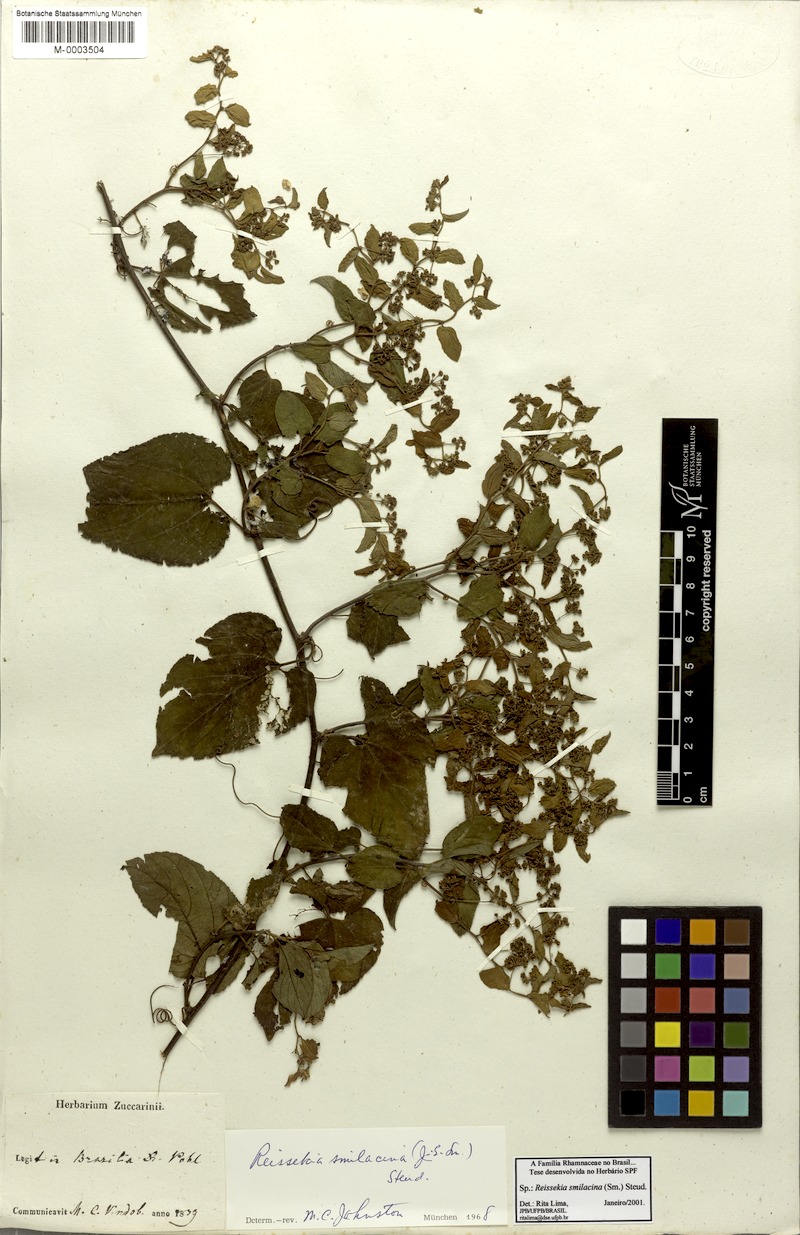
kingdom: Plantae
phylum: Tracheophyta
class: Magnoliopsida
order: Rosales
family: Rhamnaceae
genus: Reissekia
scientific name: Reissekia smilacina
